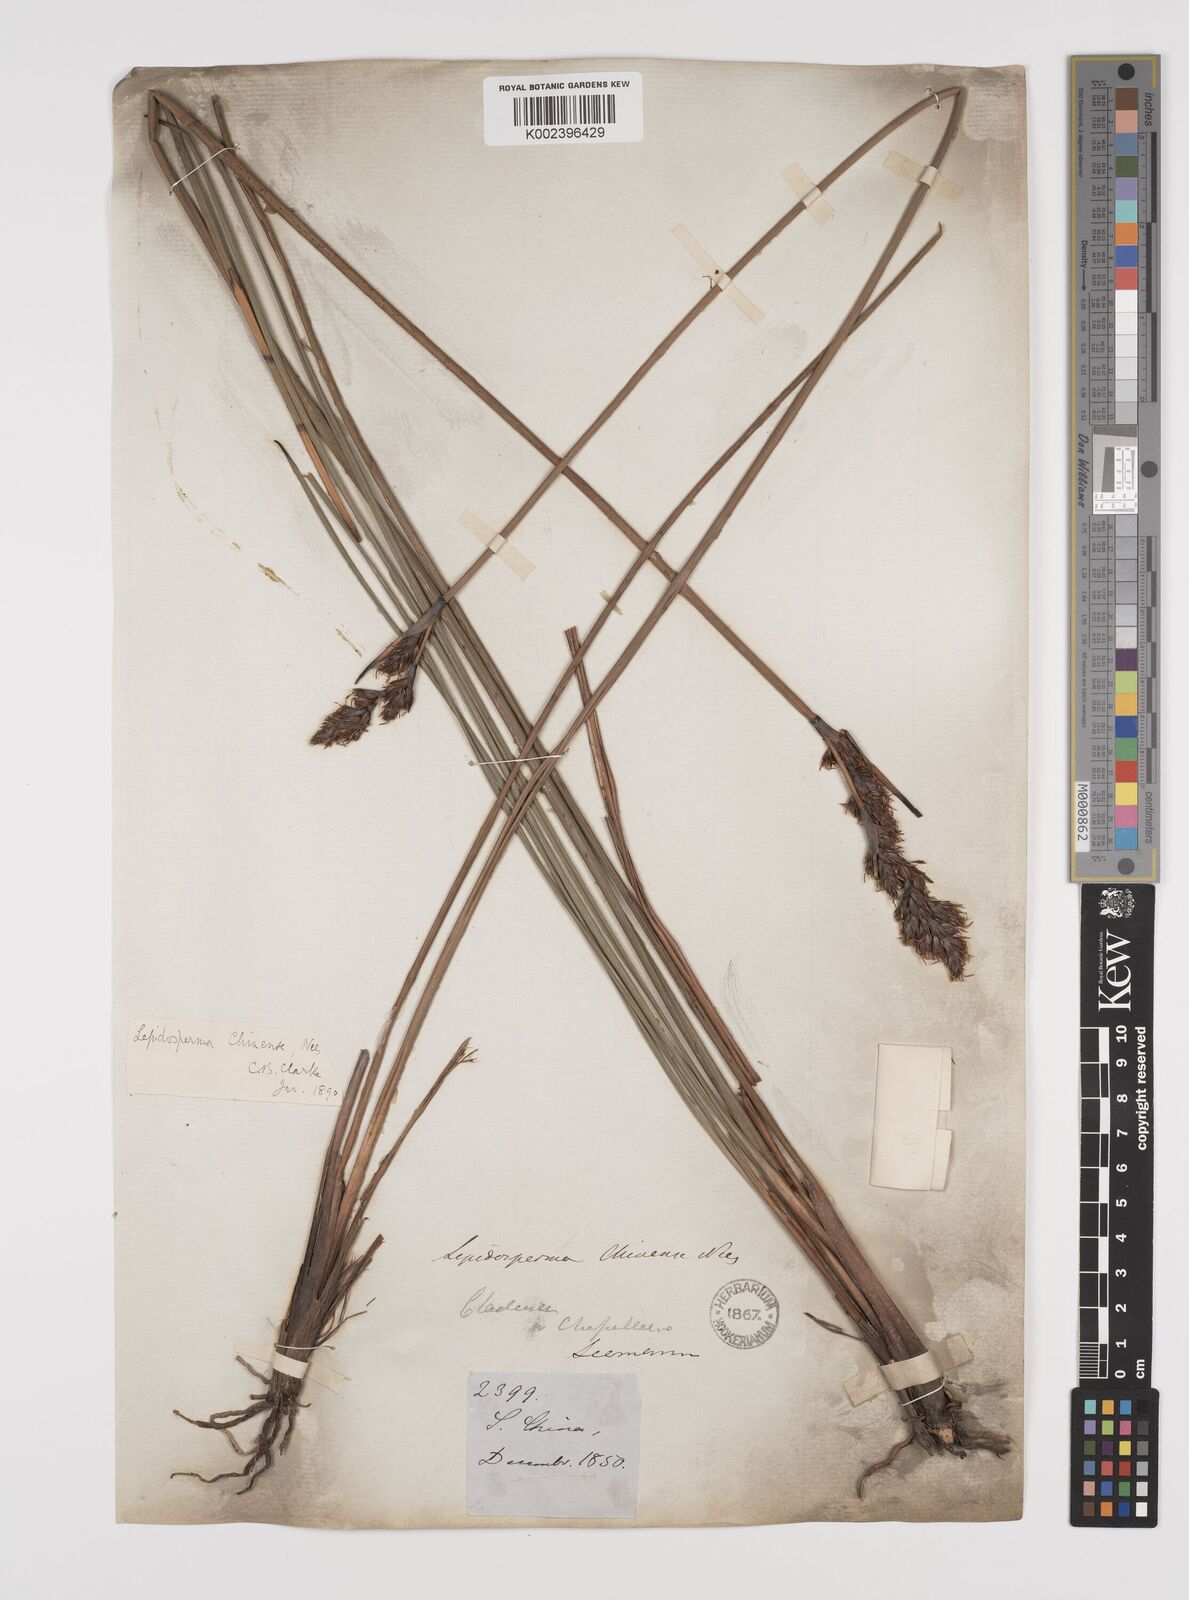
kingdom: Plantae
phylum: Tracheophyta
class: Liliopsida
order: Poales
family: Cyperaceae
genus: Lepidosperma
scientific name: Lepidosperma chinense
